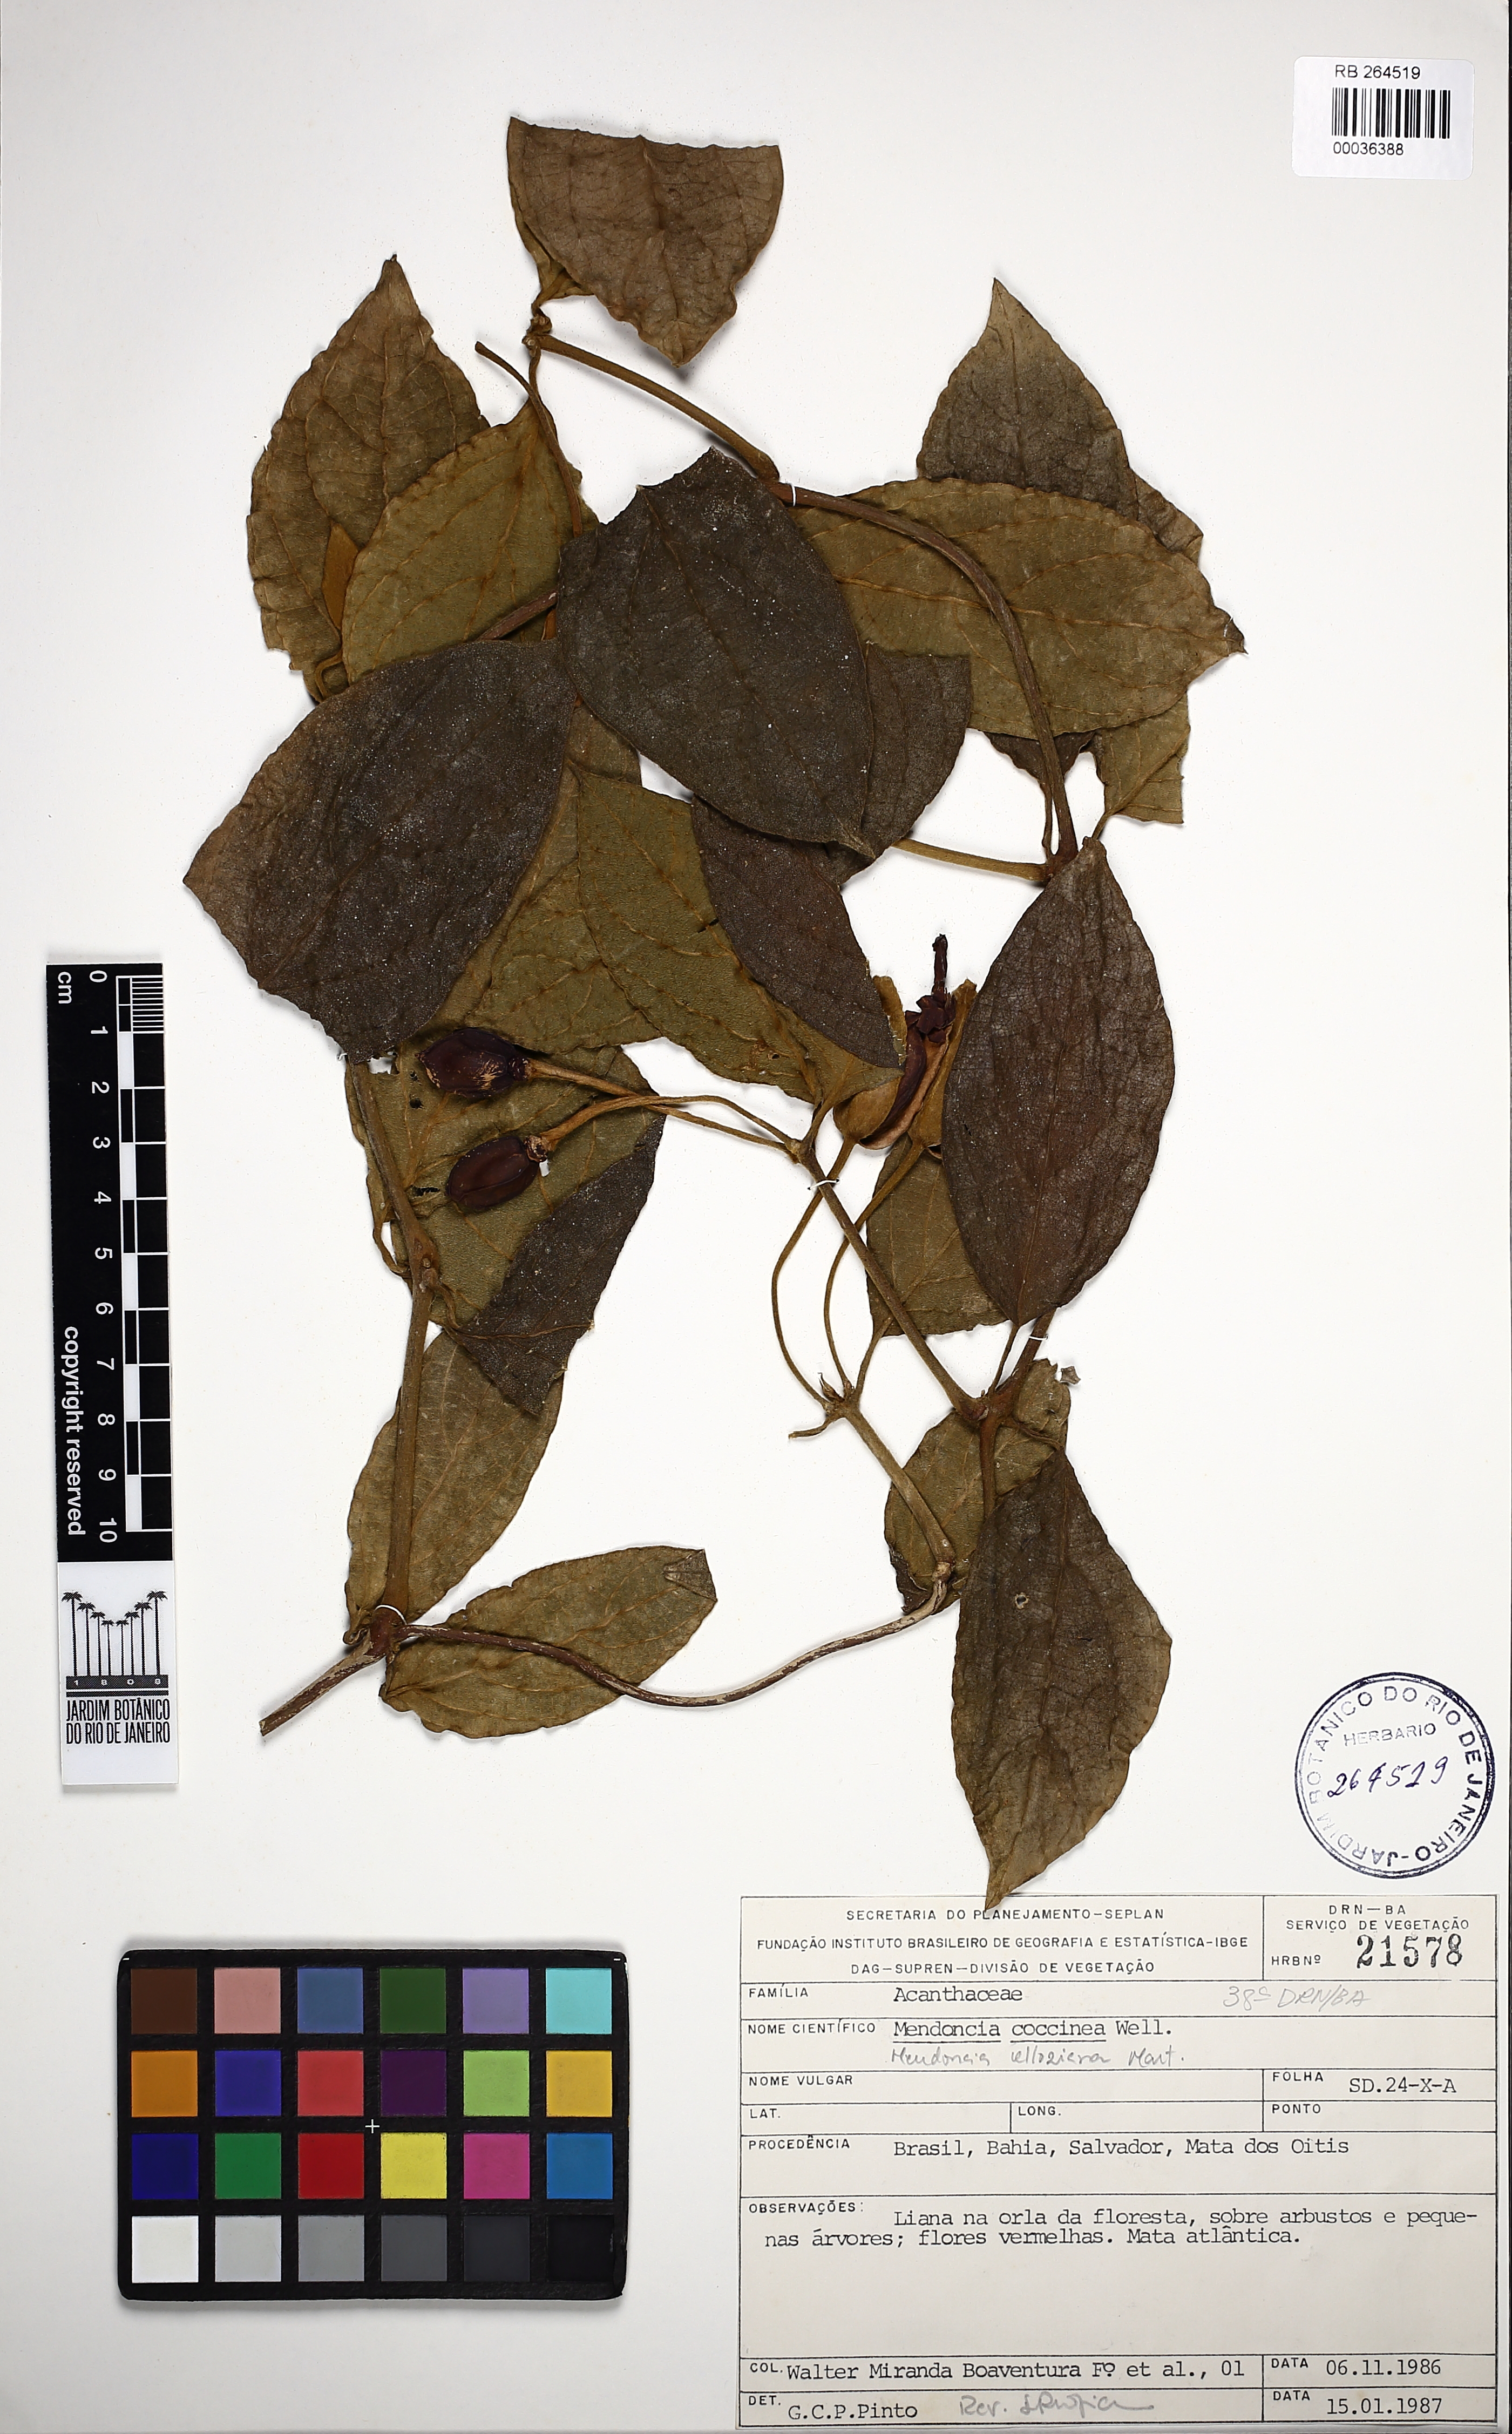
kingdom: Plantae
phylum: Tracheophyta
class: Magnoliopsida
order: Lamiales
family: Acanthaceae
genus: Mendoncia
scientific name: Mendoncia velloziana
